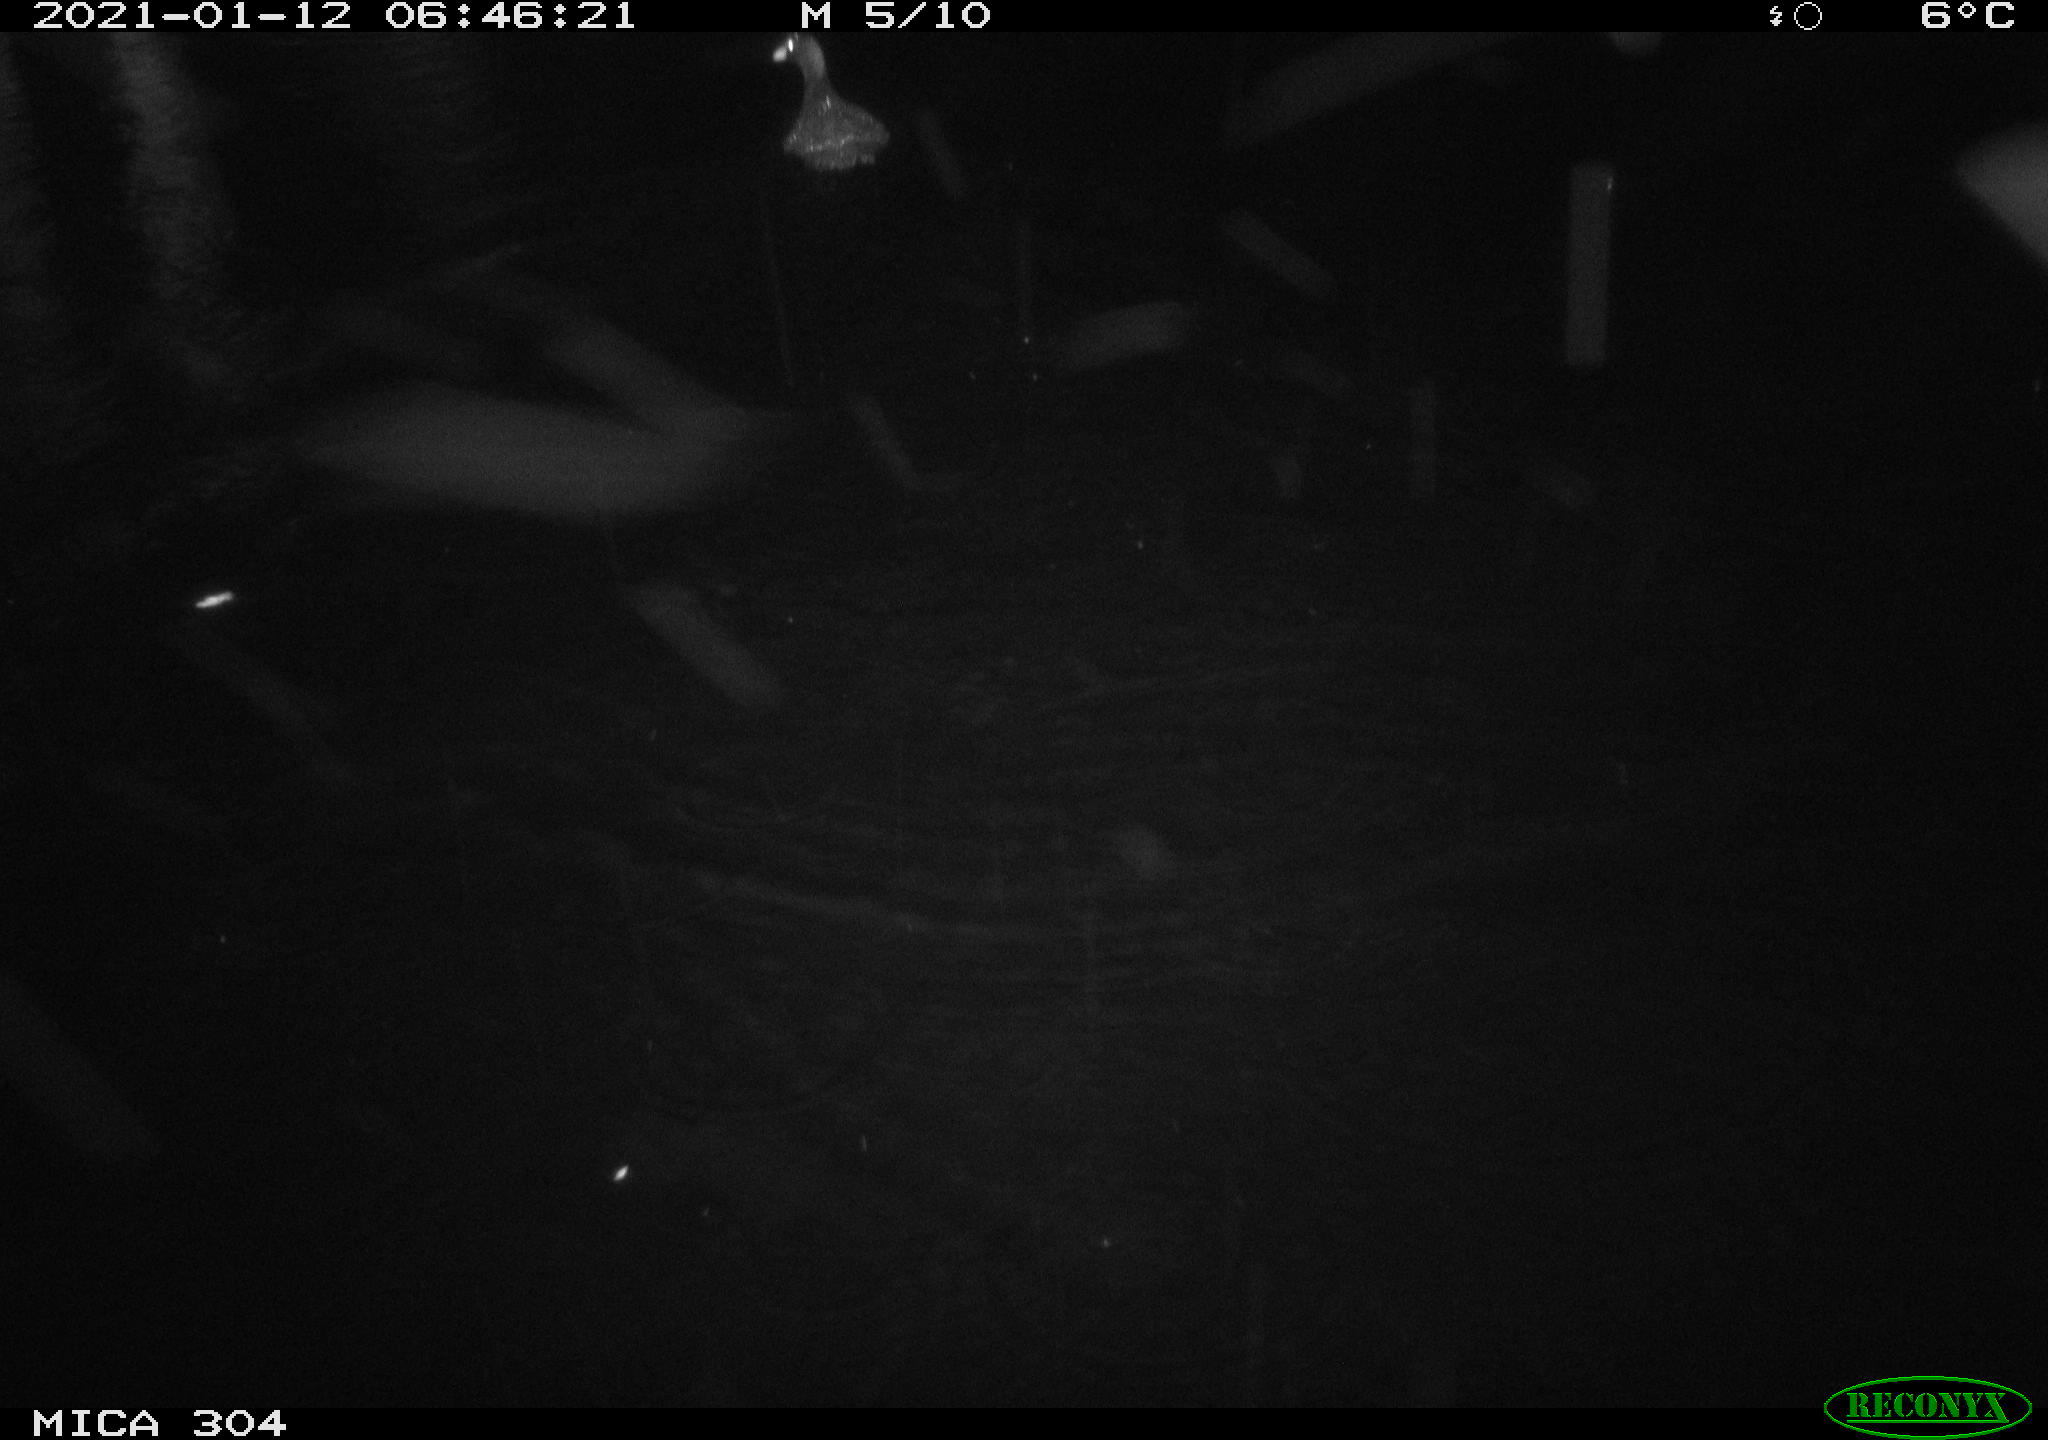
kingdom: Animalia
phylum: Chordata
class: Aves
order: Gruiformes
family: Rallidae
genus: Fulica
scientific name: Fulica atra
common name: Eurasian coot
